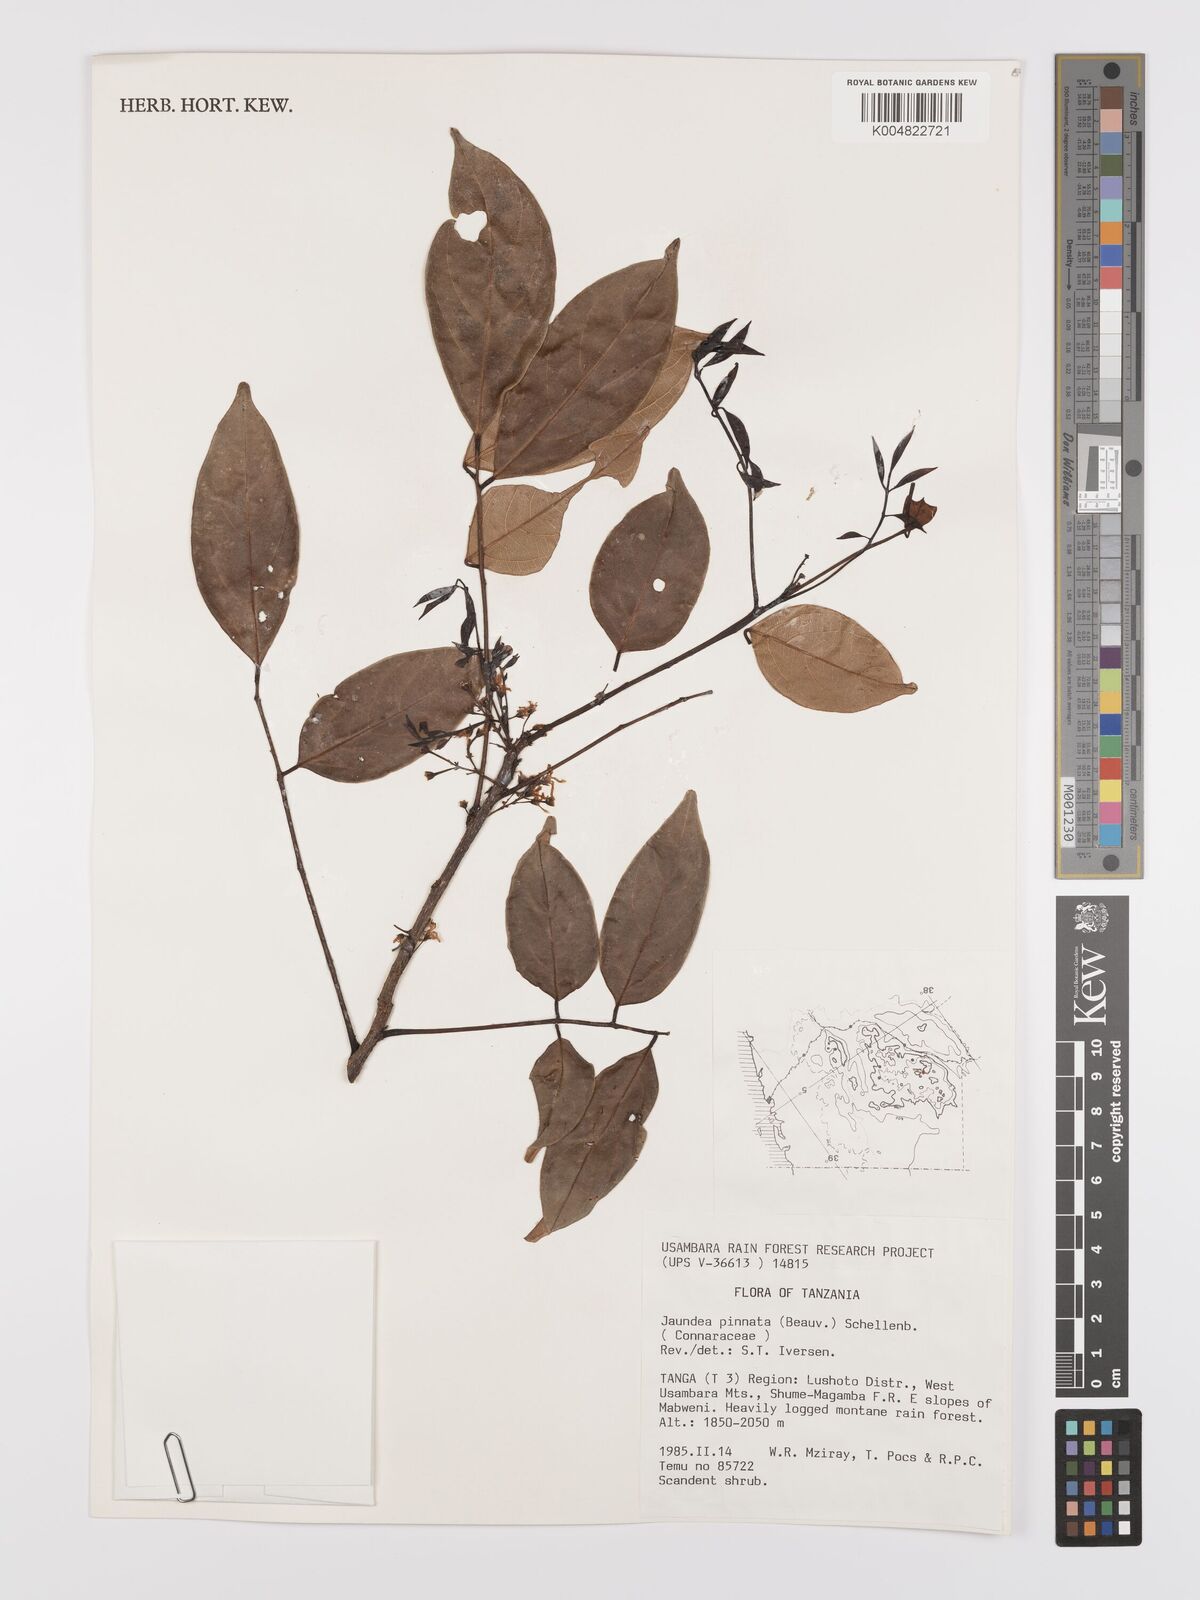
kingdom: Plantae
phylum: Tracheophyta
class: Magnoliopsida
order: Oxalidales
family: Connaraceae
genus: Rourea
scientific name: Rourea pinnata
